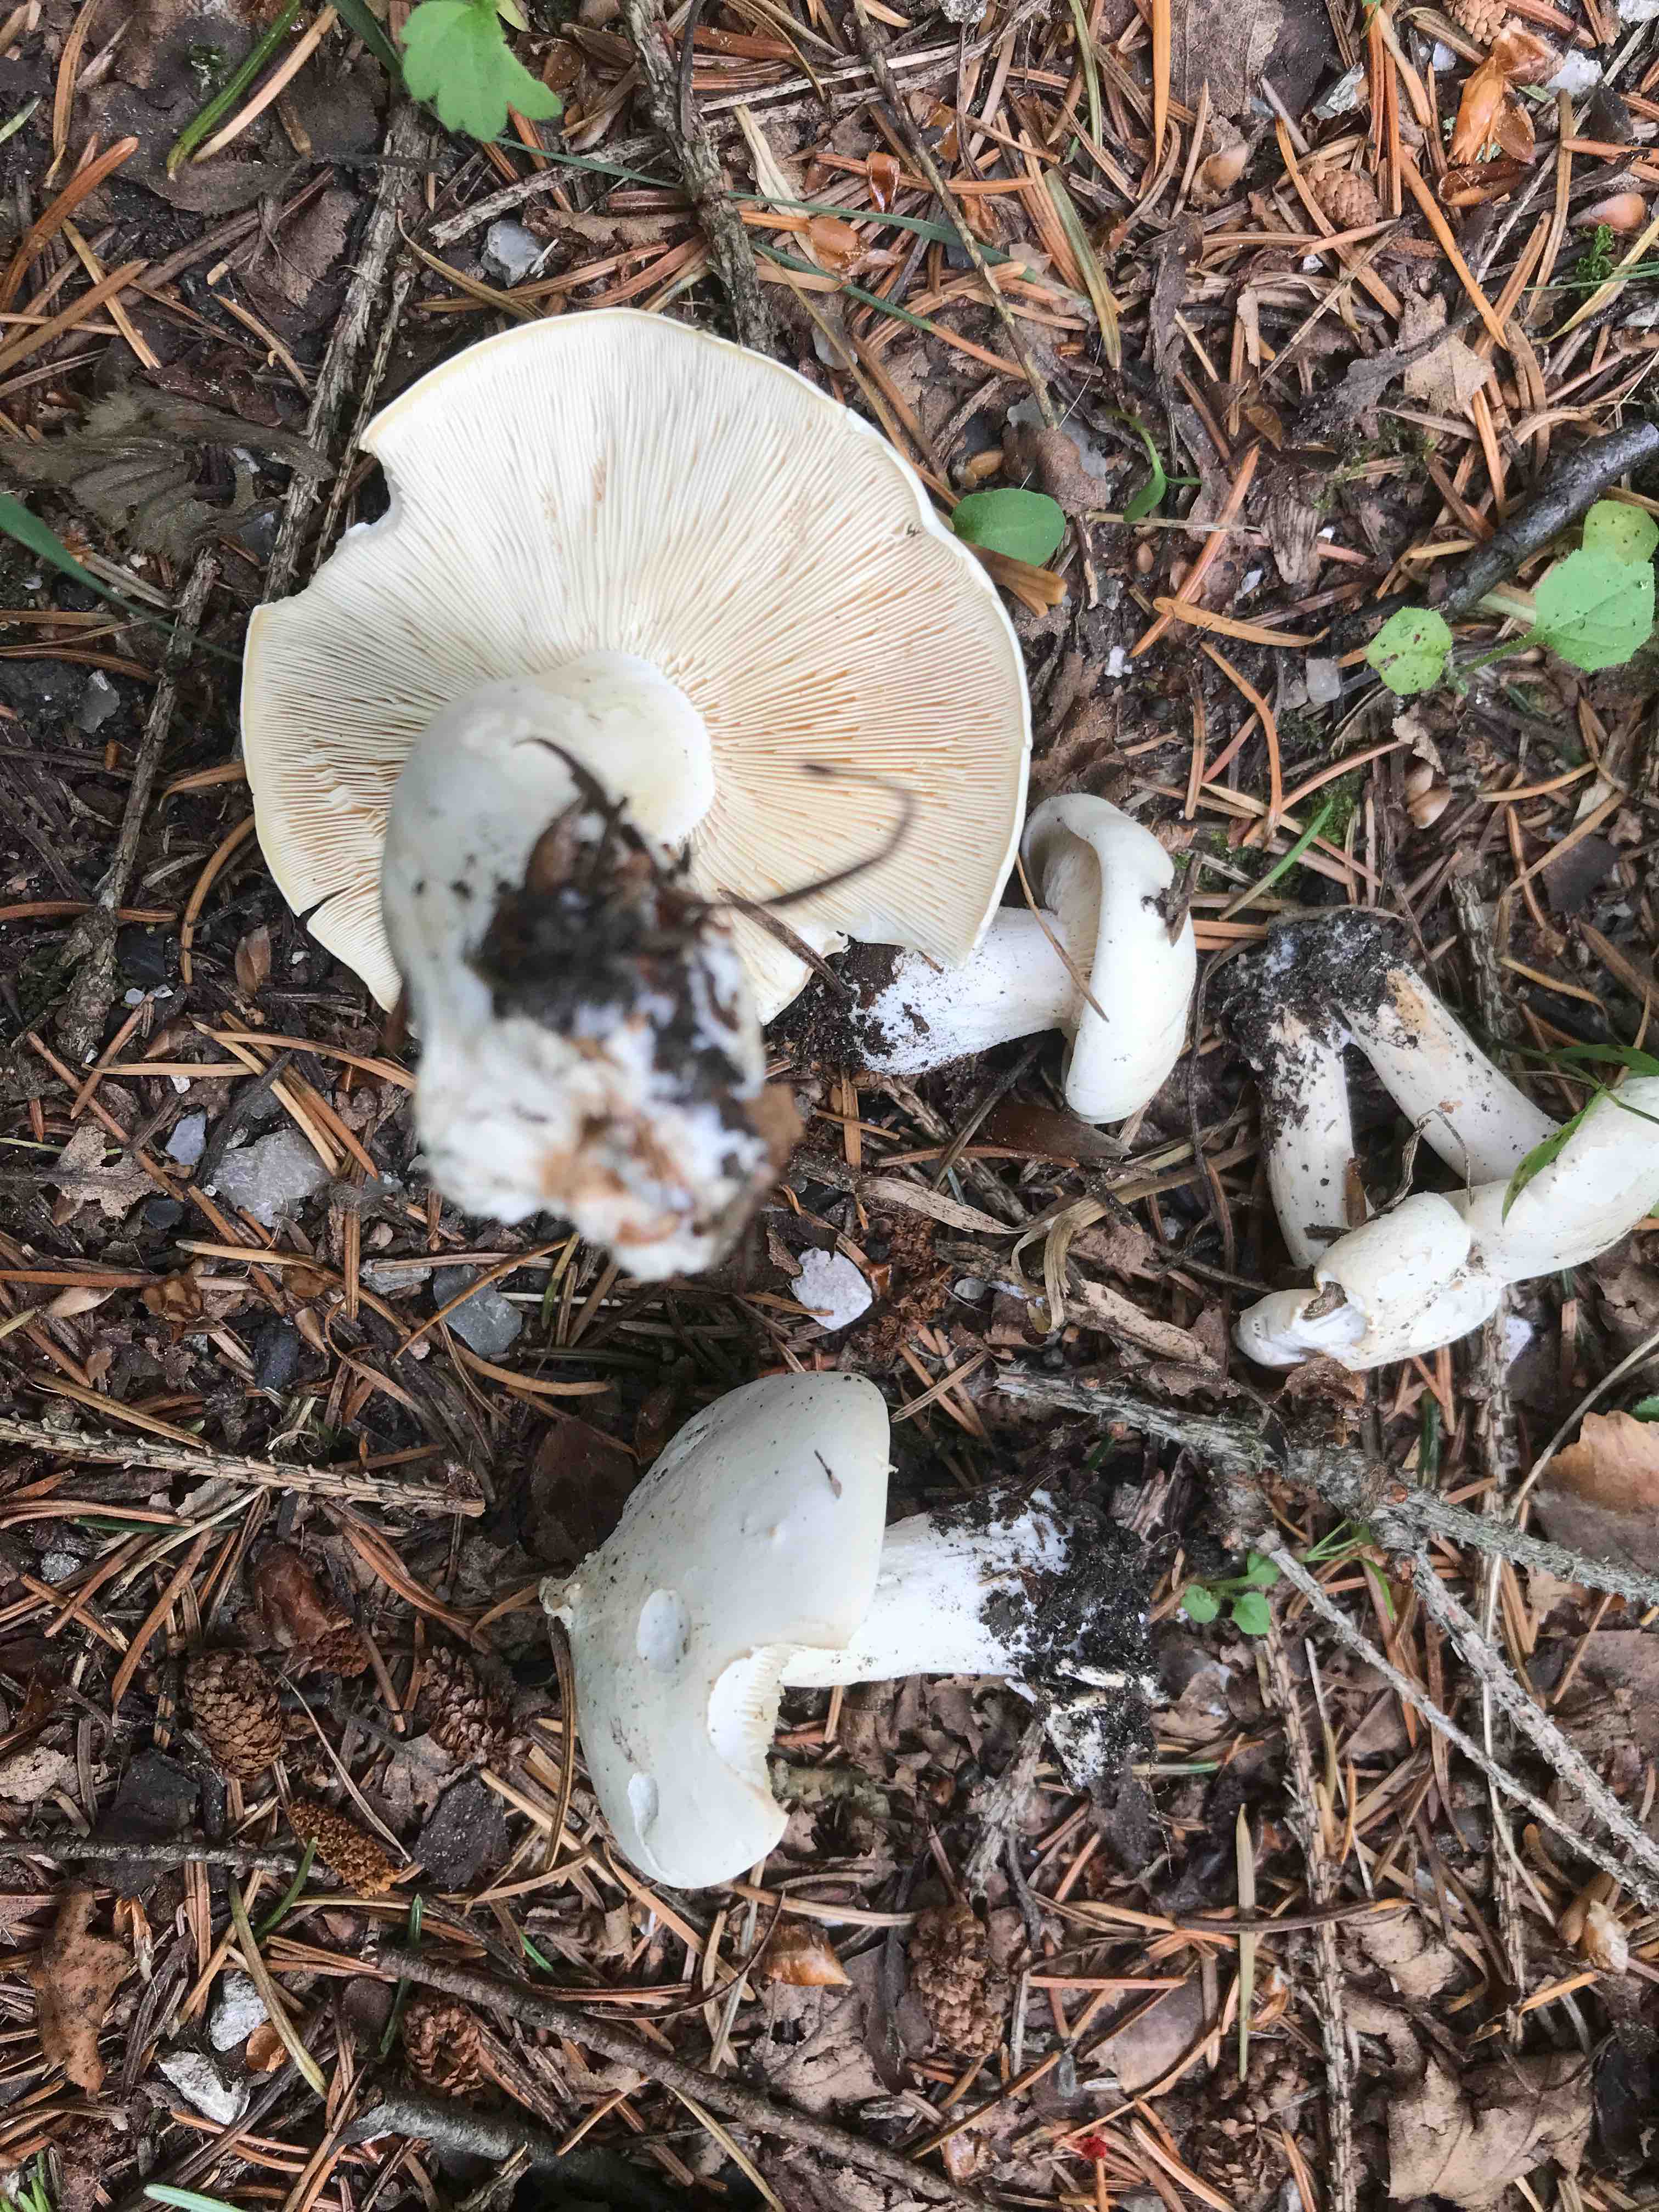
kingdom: Fungi
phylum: Basidiomycota
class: Agaricomycetes
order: Agaricales
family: Lyophyllaceae
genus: Calocybe
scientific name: Calocybe gambosa
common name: vårmusseron
